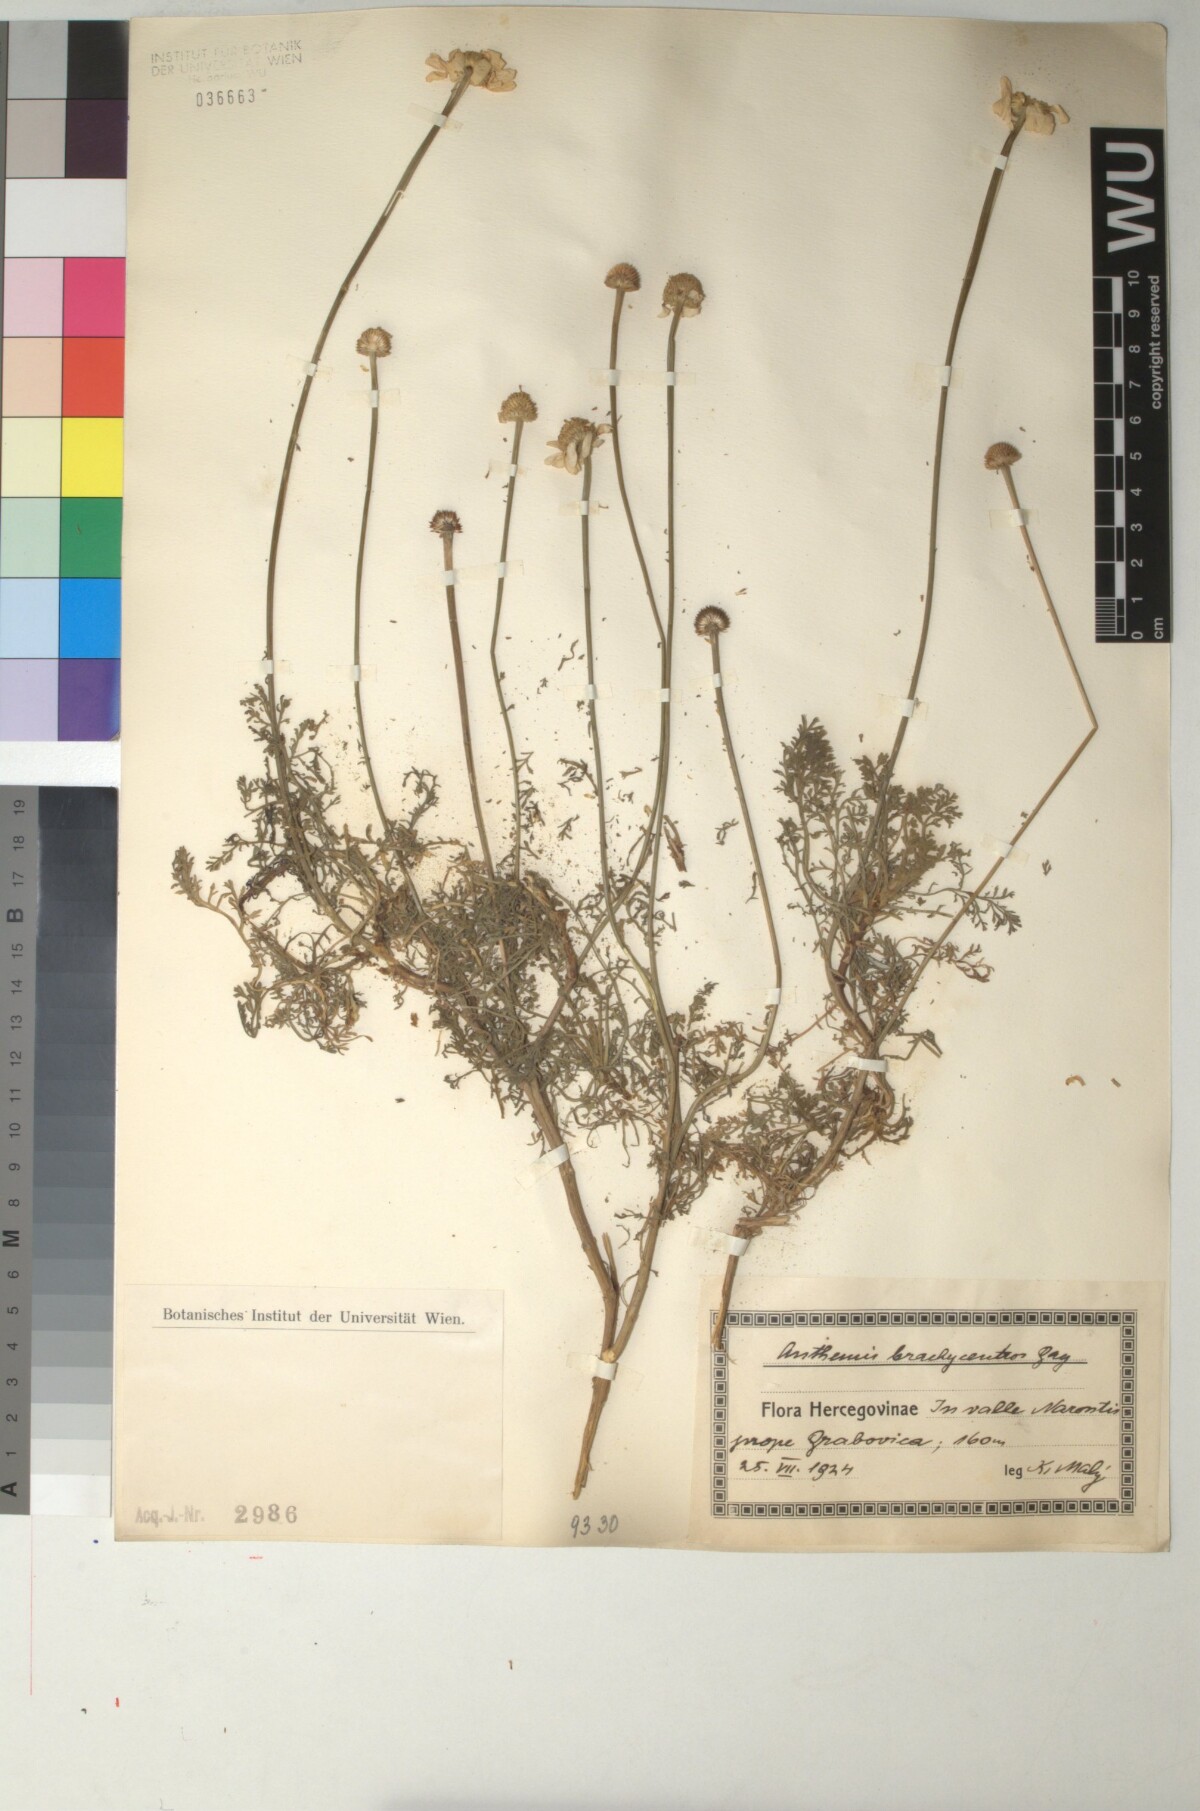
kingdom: Plantae
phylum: Tracheophyta
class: Magnoliopsida
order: Asterales
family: Asteraceae
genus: Cota
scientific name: Cota segetalis
